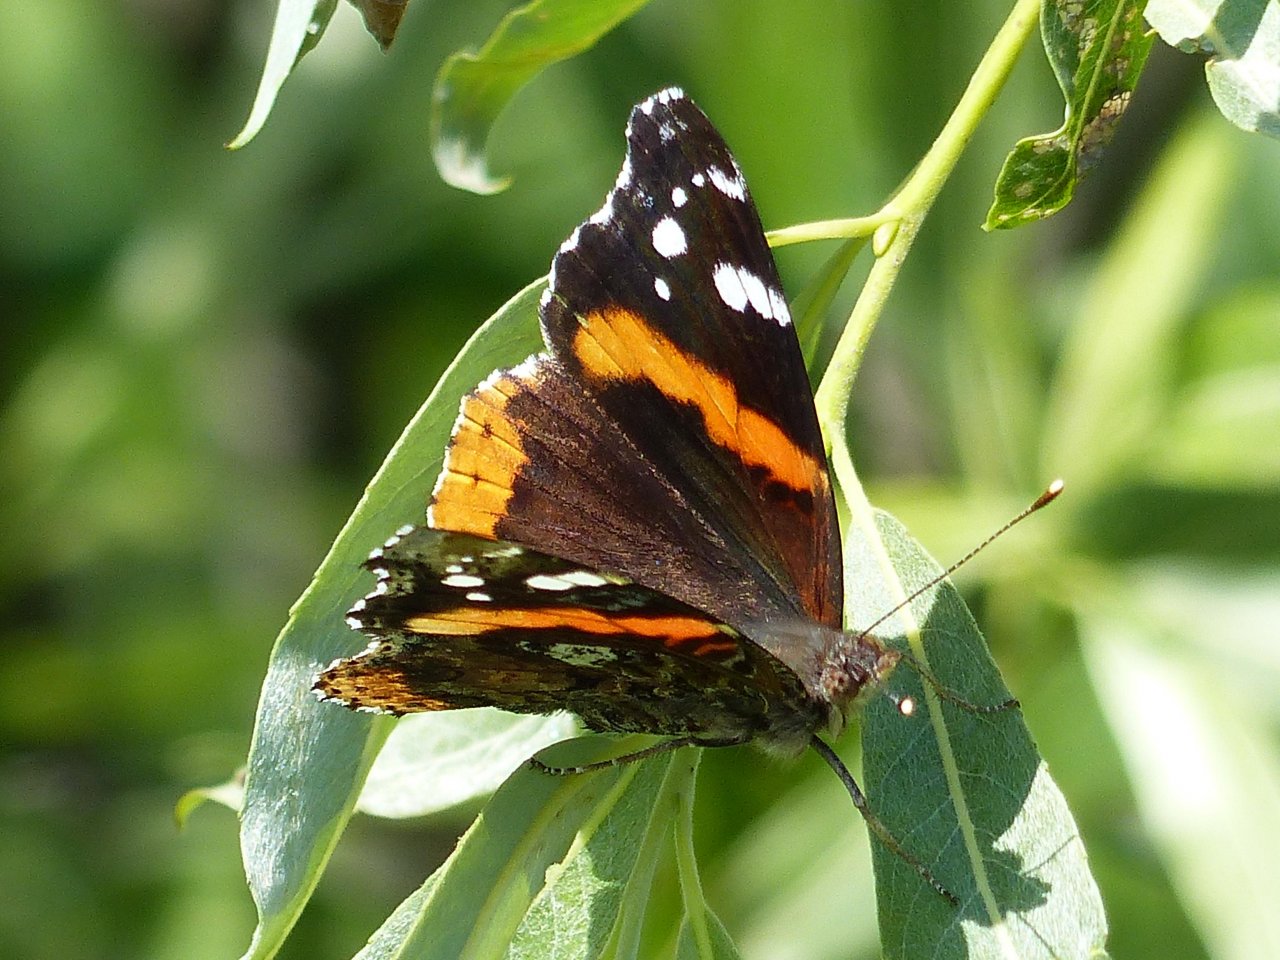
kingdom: Animalia
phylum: Arthropoda
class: Insecta
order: Lepidoptera
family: Nymphalidae
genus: Vanessa
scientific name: Vanessa atalanta
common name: Red Admiral
